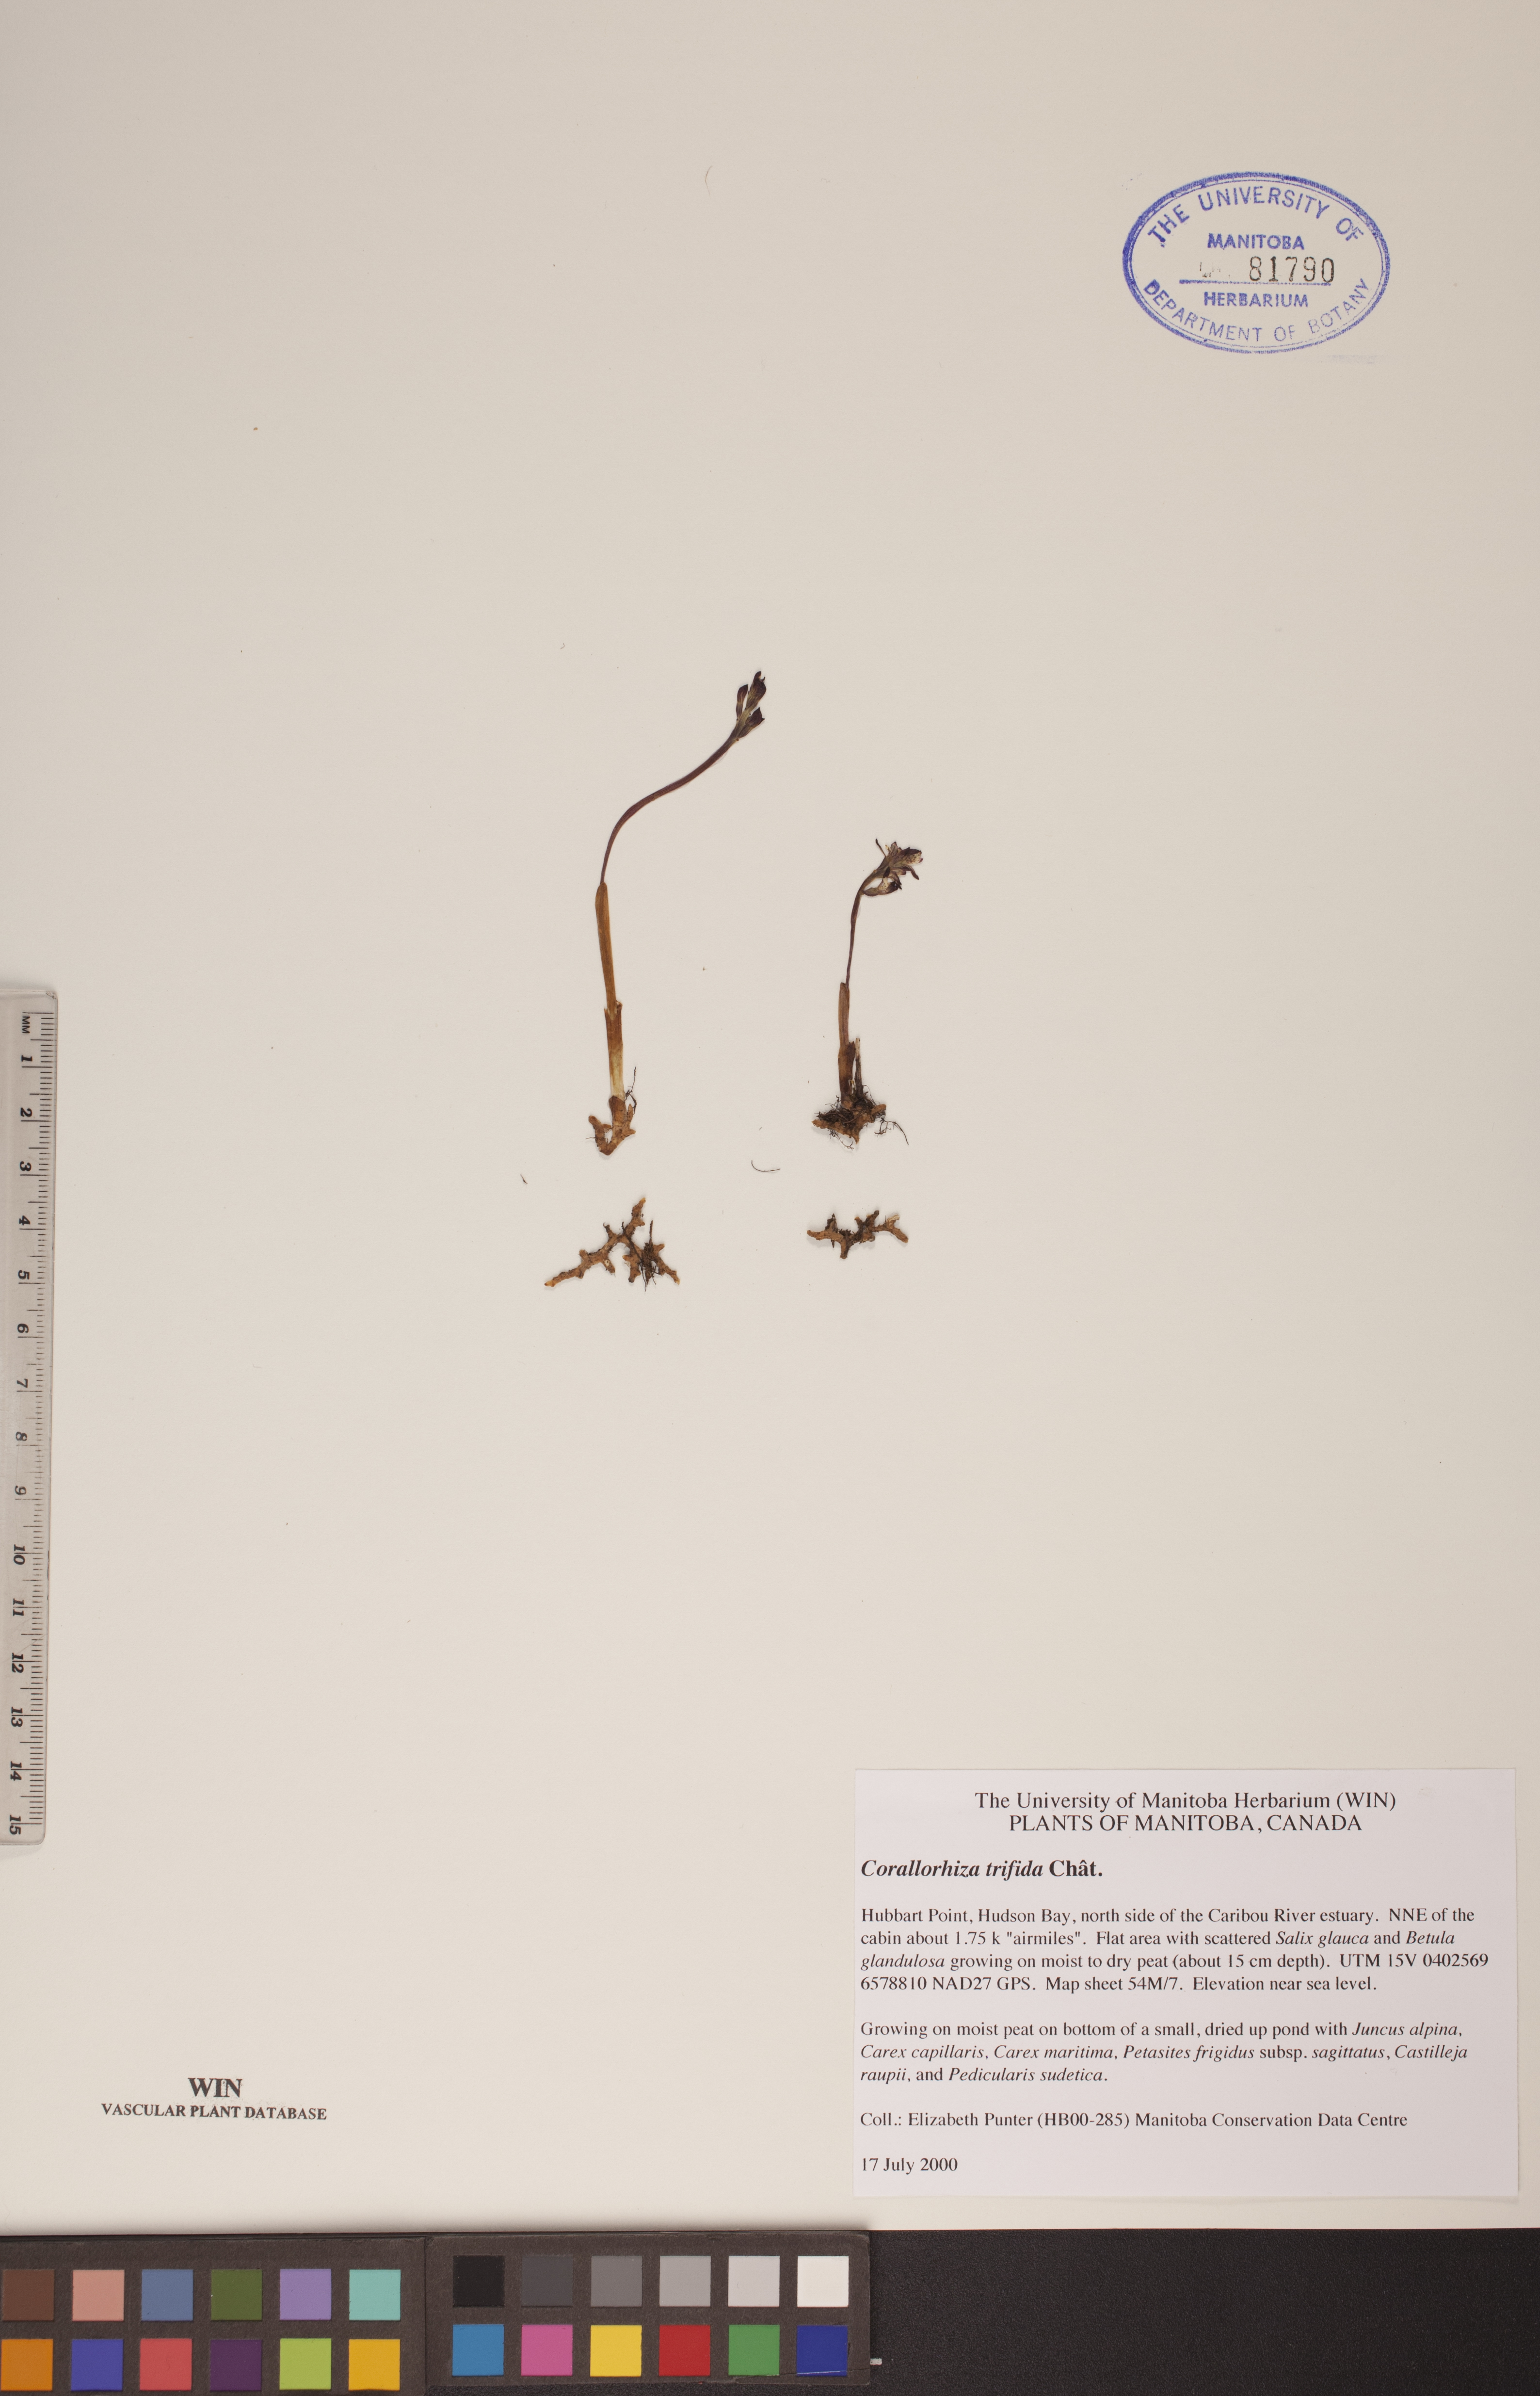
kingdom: Plantae
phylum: Tracheophyta
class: Liliopsida
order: Asparagales
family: Orchidaceae
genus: Corallorhiza
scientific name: Corallorhiza trifida
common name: Yellow coralroot
